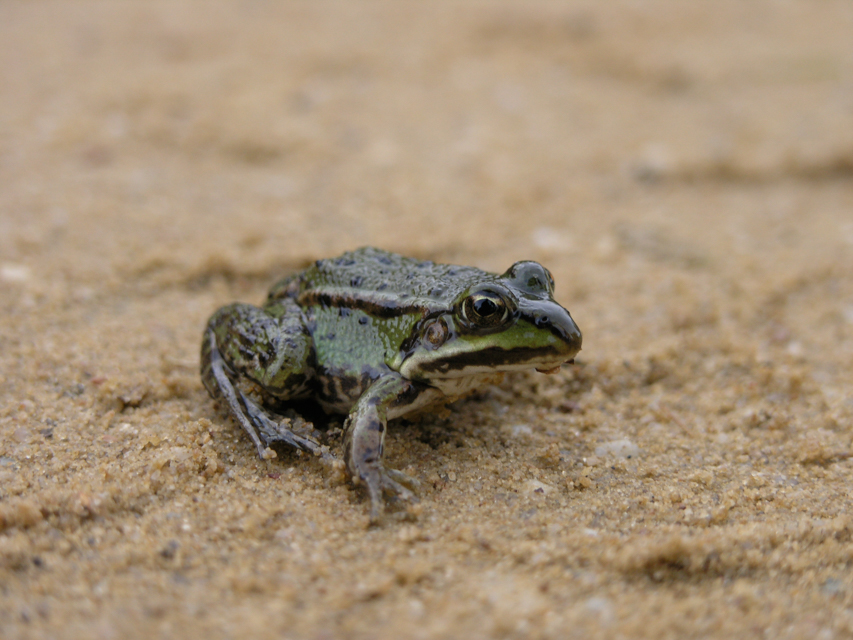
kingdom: Animalia
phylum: Chordata
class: Amphibia
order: Anura
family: Ranidae
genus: Pelophylax
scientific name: Pelophylax lessonae
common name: Pool frog
